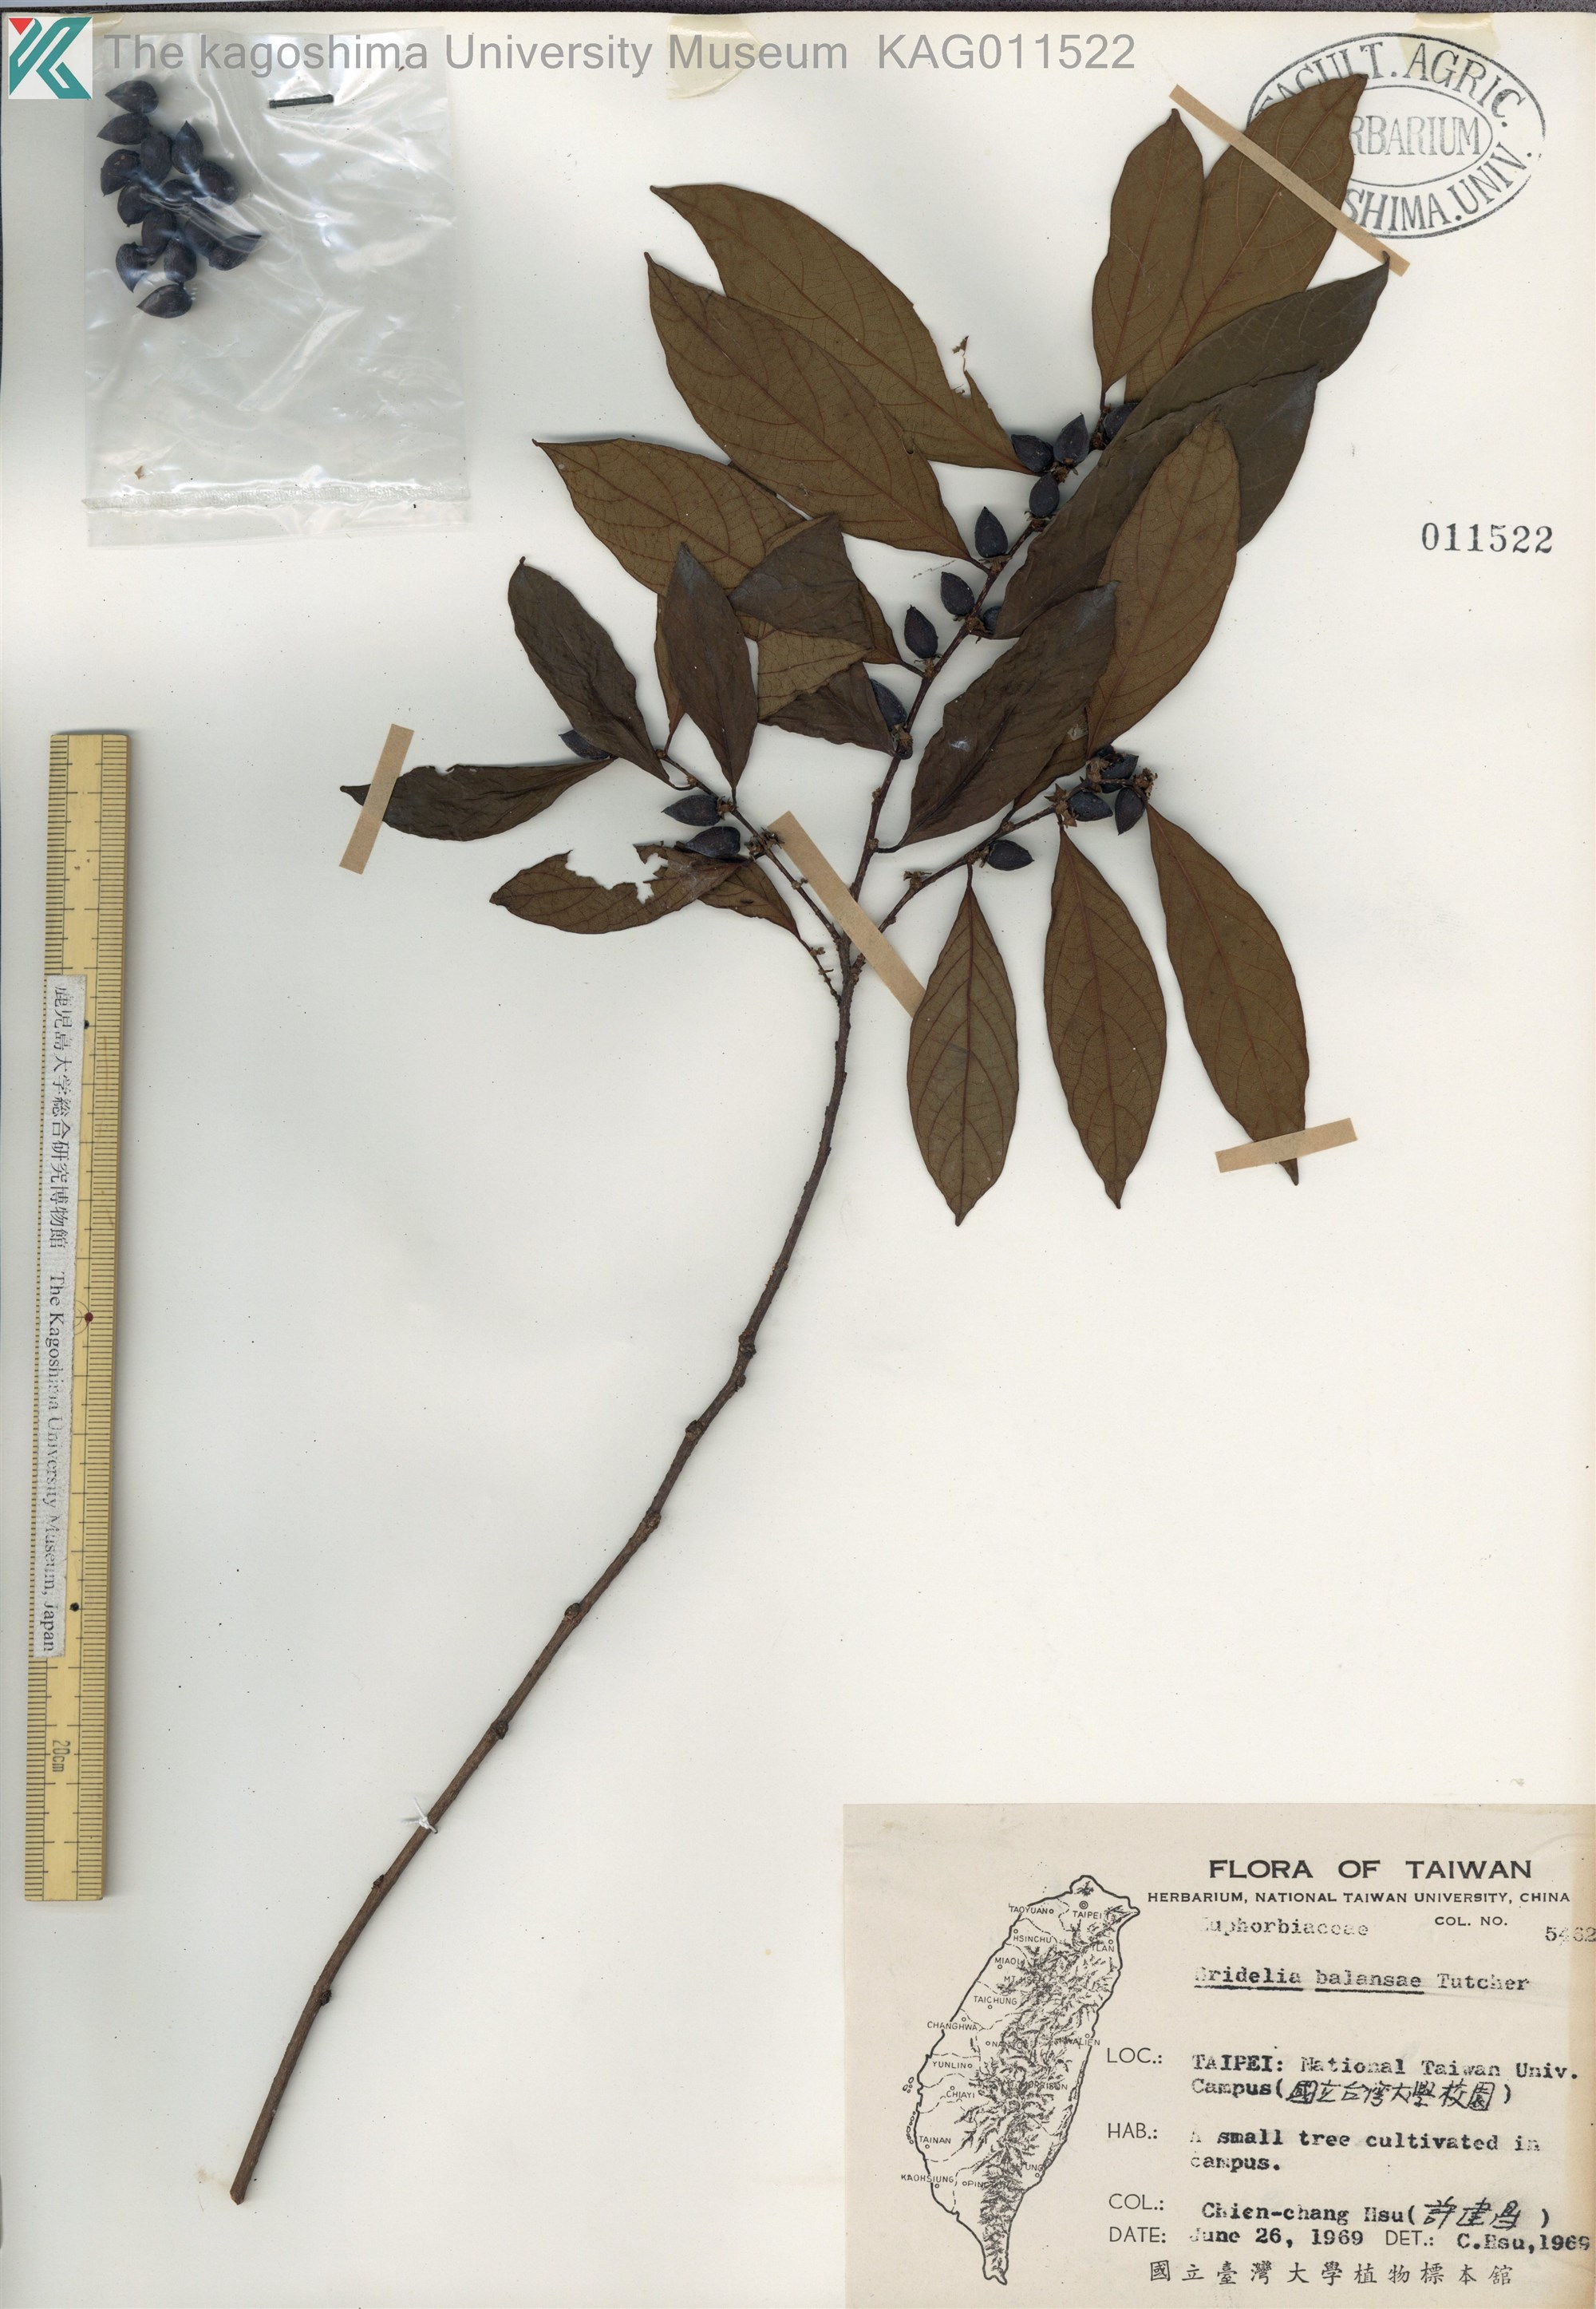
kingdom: Plantae
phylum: Tracheophyta
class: Magnoliopsida
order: Malpighiales
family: Phyllanthaceae
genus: Bridelia
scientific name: Bridelia balansae
